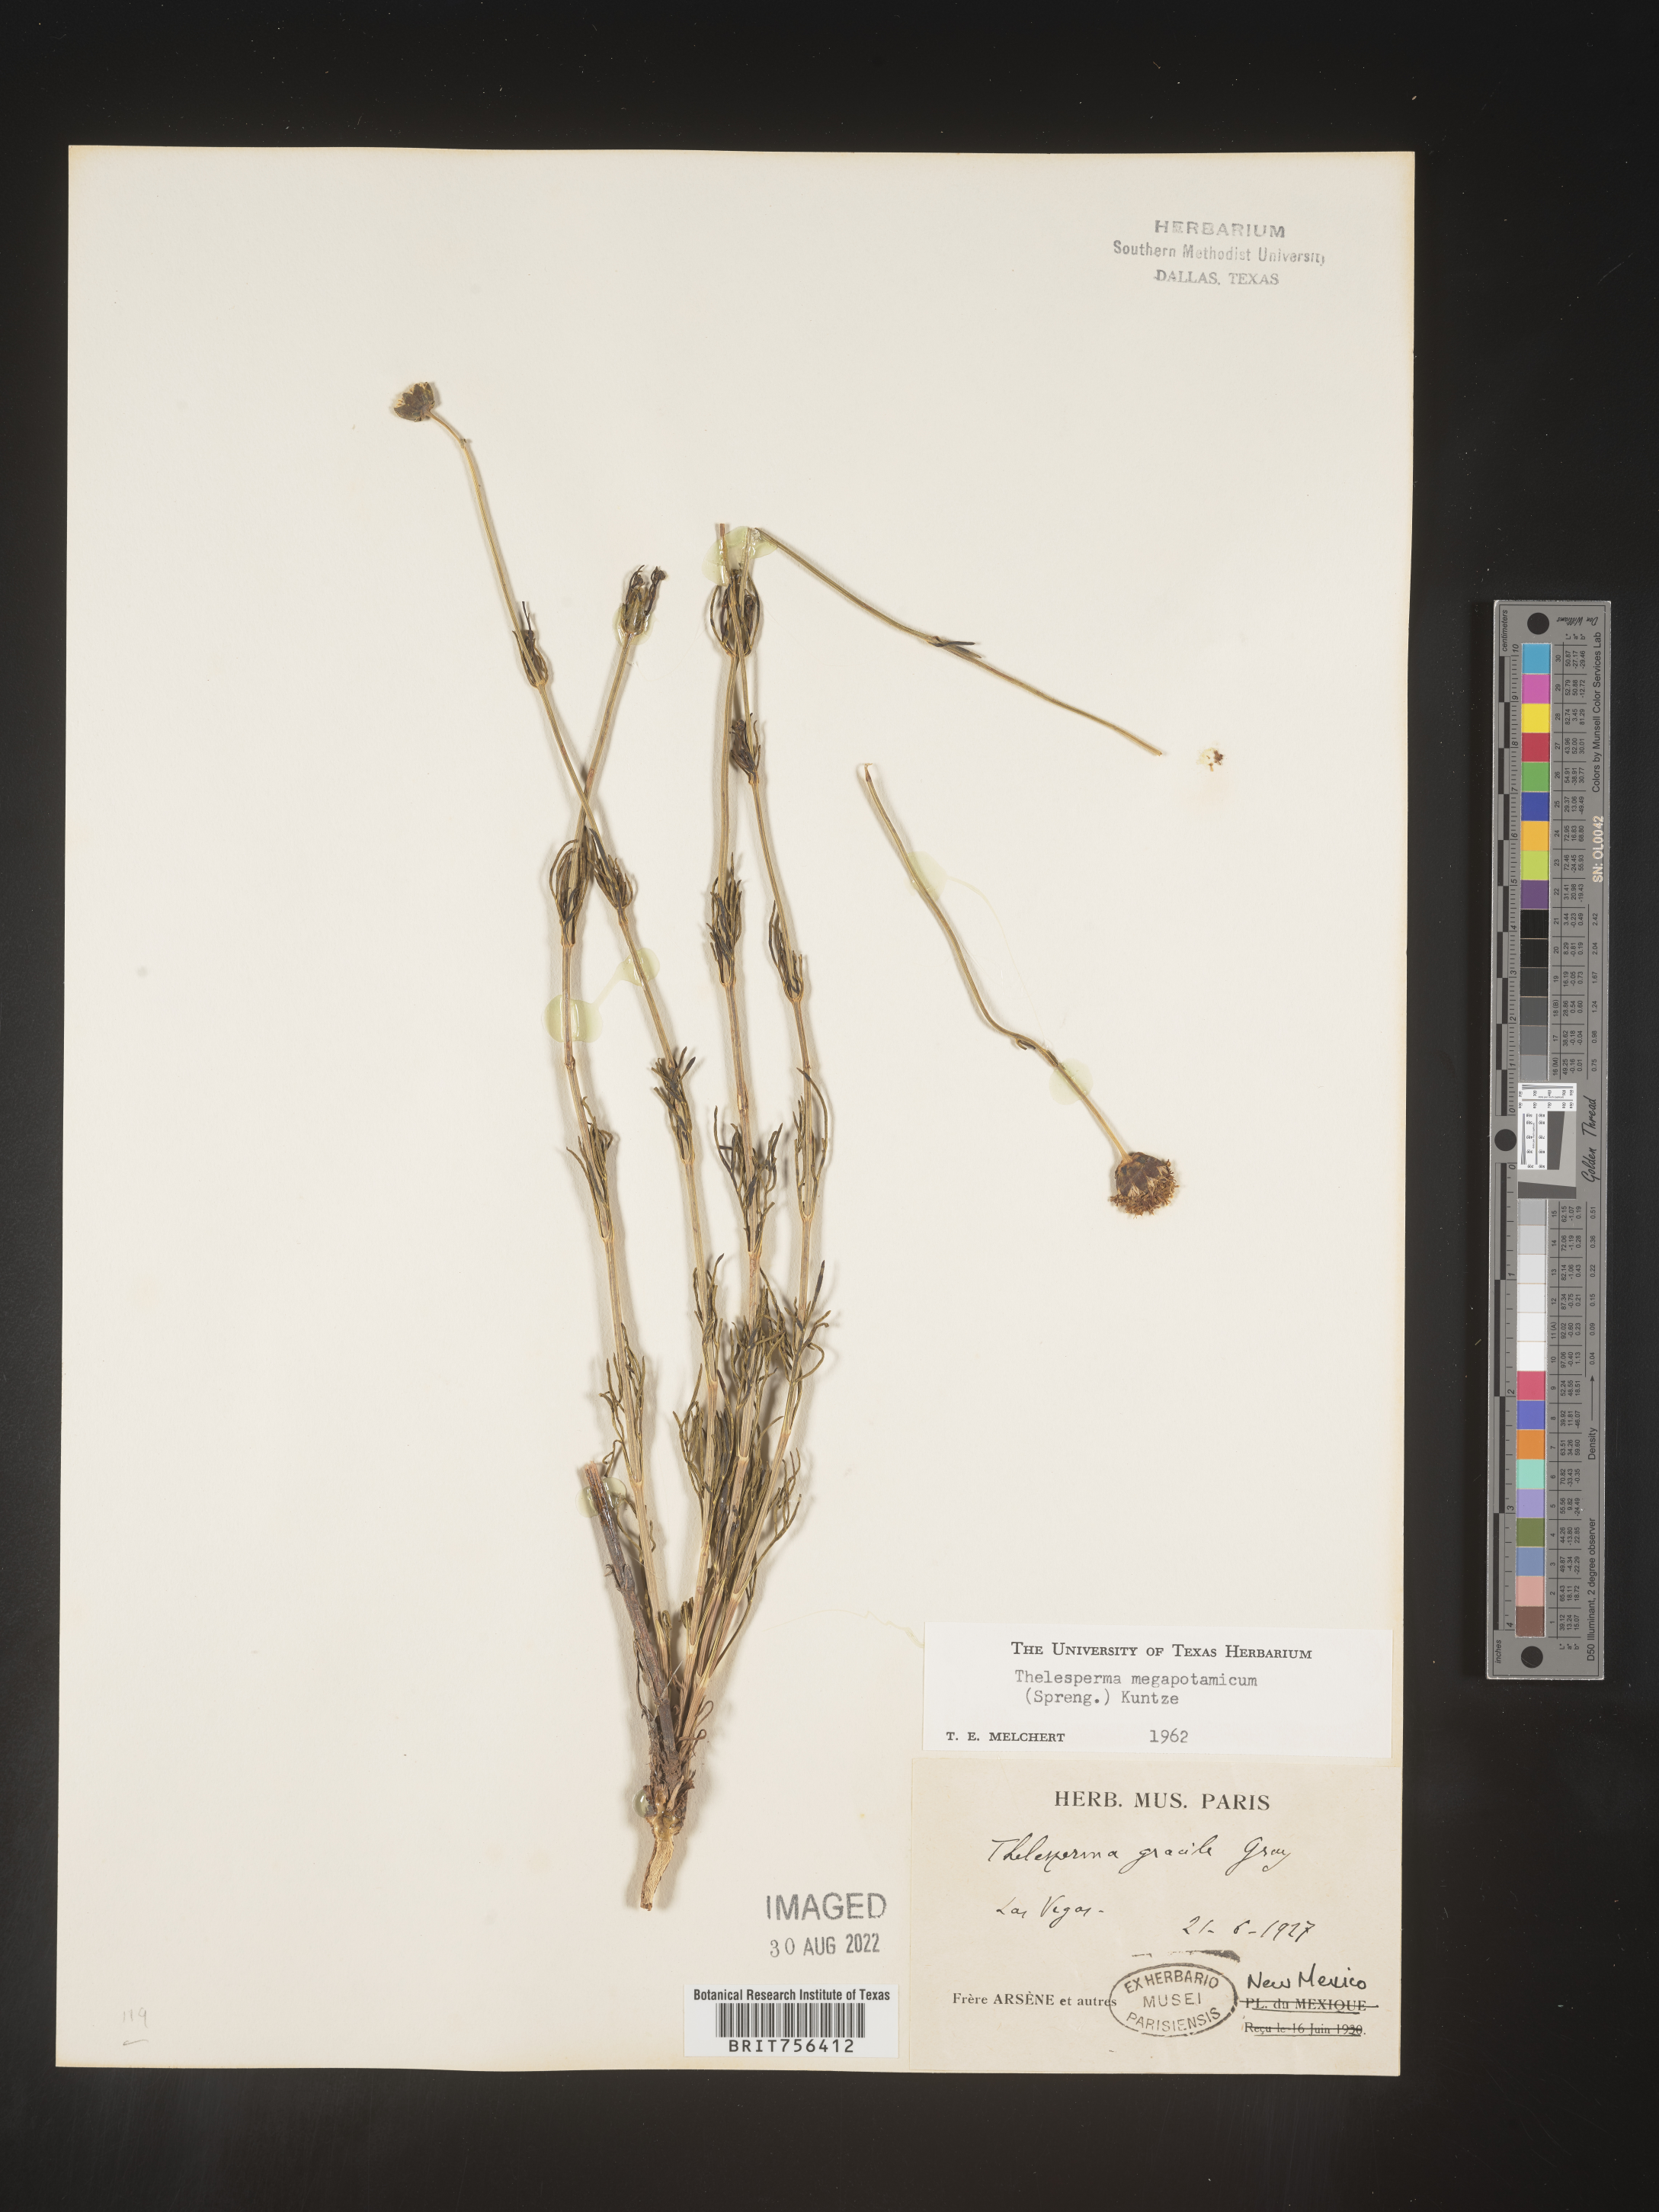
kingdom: Plantae
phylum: Tracheophyta
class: Magnoliopsida
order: Asterales
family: Asteraceae
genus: Thelesperma
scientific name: Thelesperma megapotamicum
